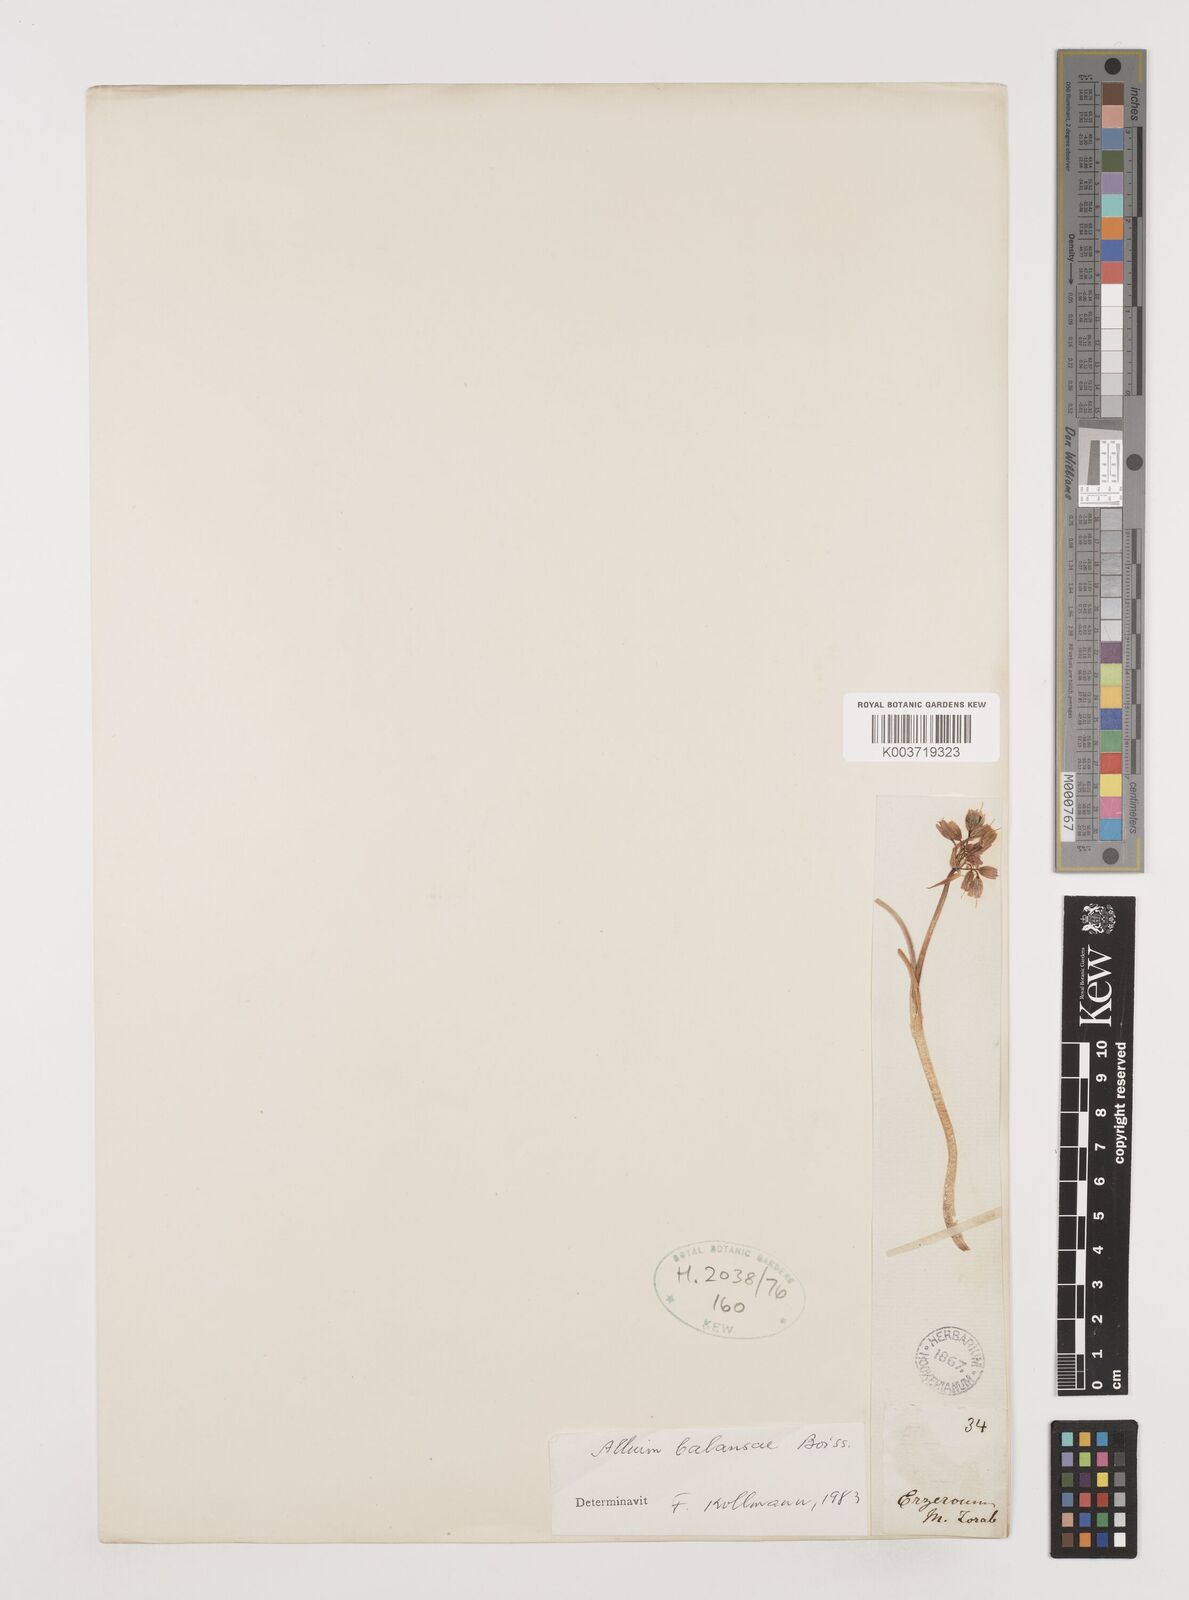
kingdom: Plantae
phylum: Tracheophyta
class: Liliopsida
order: Asparagales
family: Amaryllidaceae
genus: Allium
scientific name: Allium balansae
